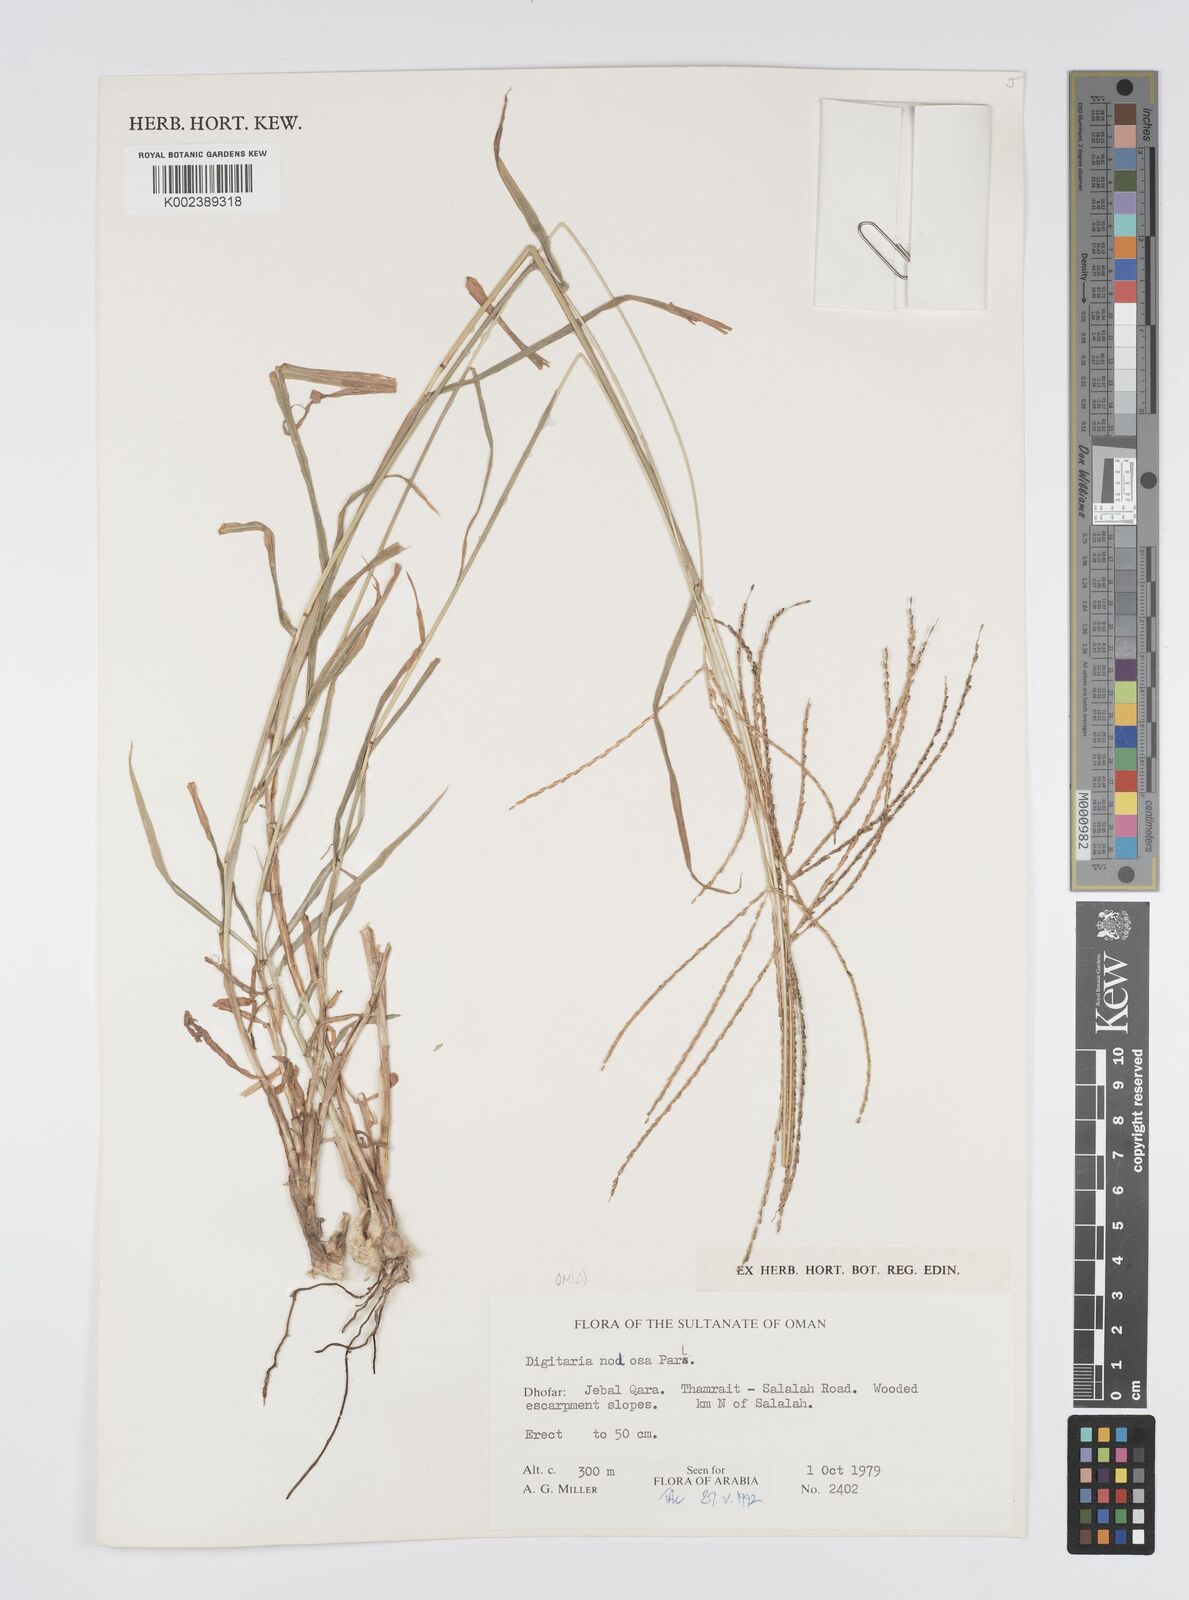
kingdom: Plantae
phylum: Tracheophyta
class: Liliopsida
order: Poales
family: Poaceae
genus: Digitaria
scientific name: Digitaria nodosa
